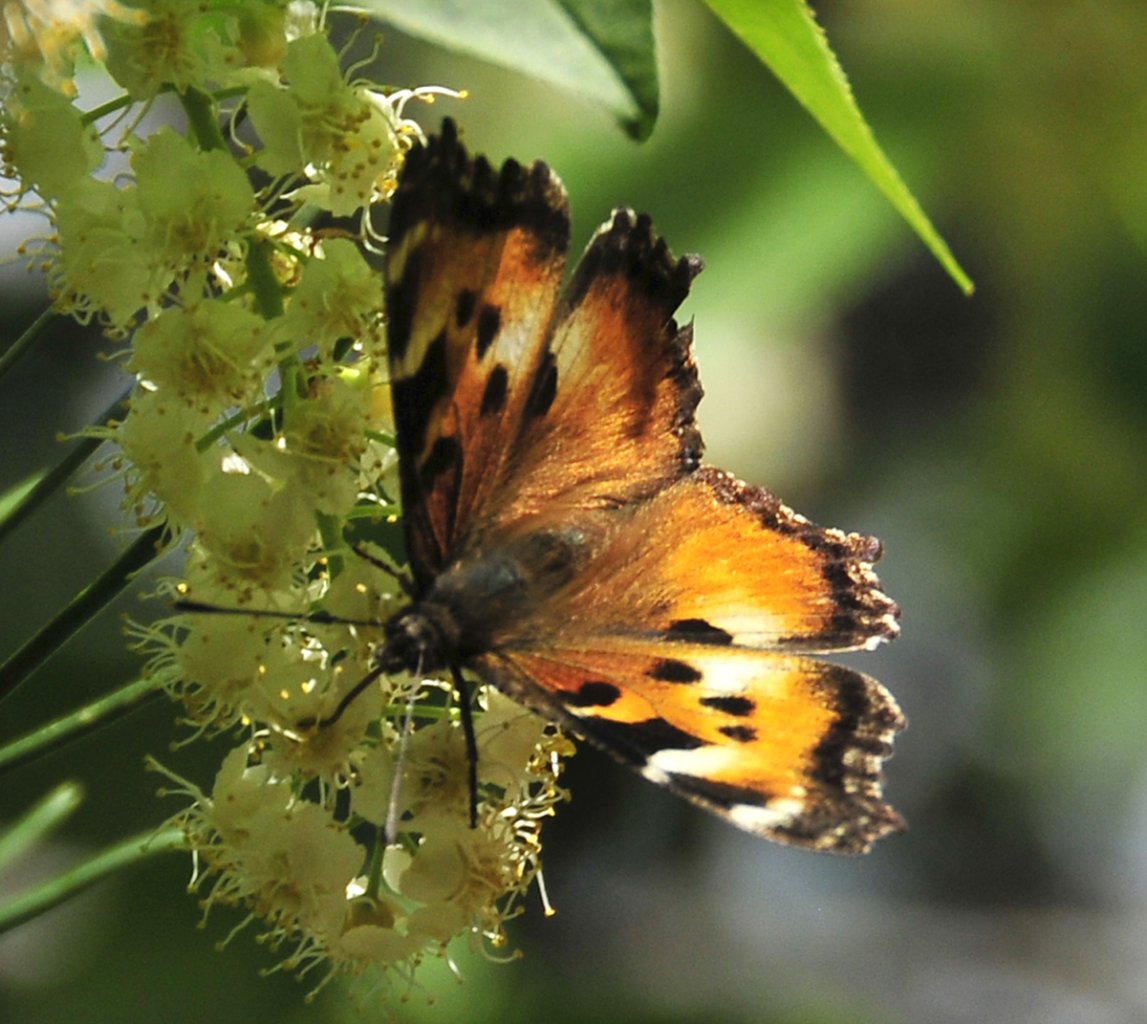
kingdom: Animalia
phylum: Arthropoda
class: Insecta
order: Lepidoptera
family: Nymphalidae
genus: Nymphalis
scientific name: Nymphalis californica
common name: California Tortoiseshell
